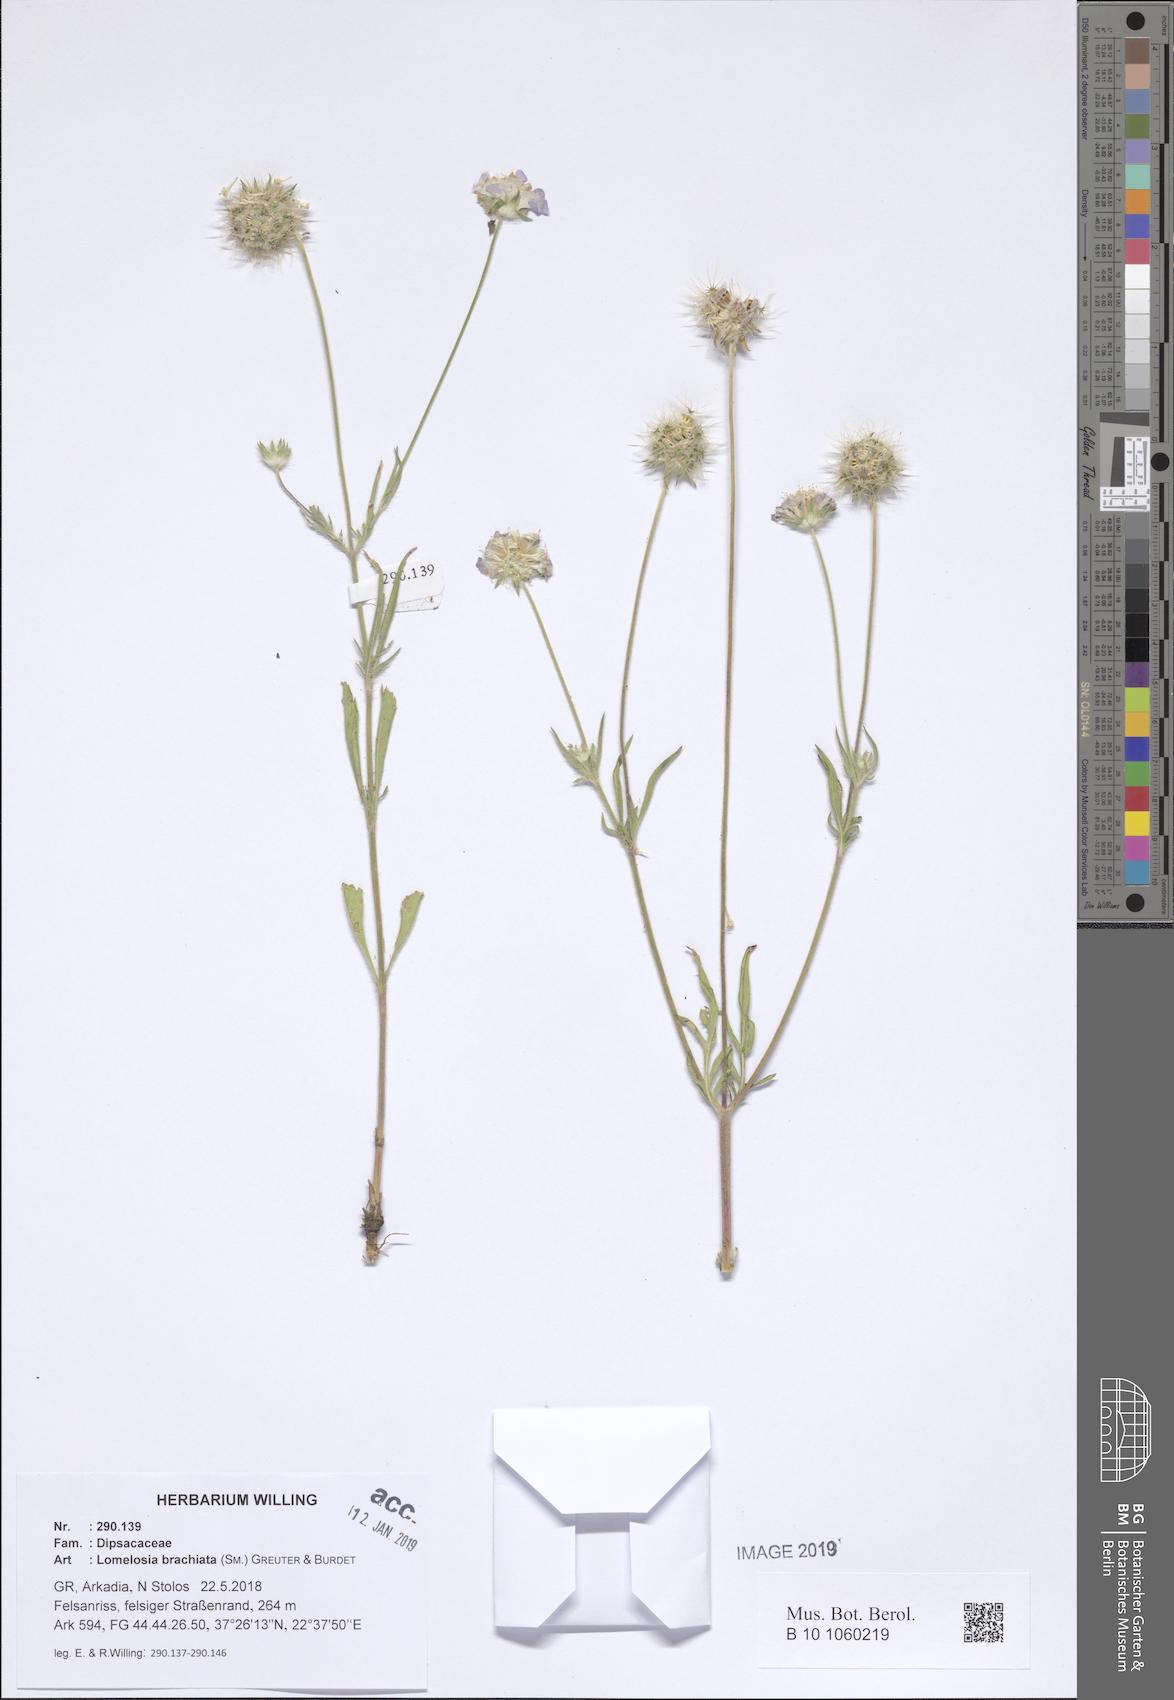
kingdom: Plantae
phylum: Tracheophyta
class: Magnoliopsida
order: Dipsacales
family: Caprifoliaceae
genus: Lomelosia
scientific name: Lomelosia brachiata
